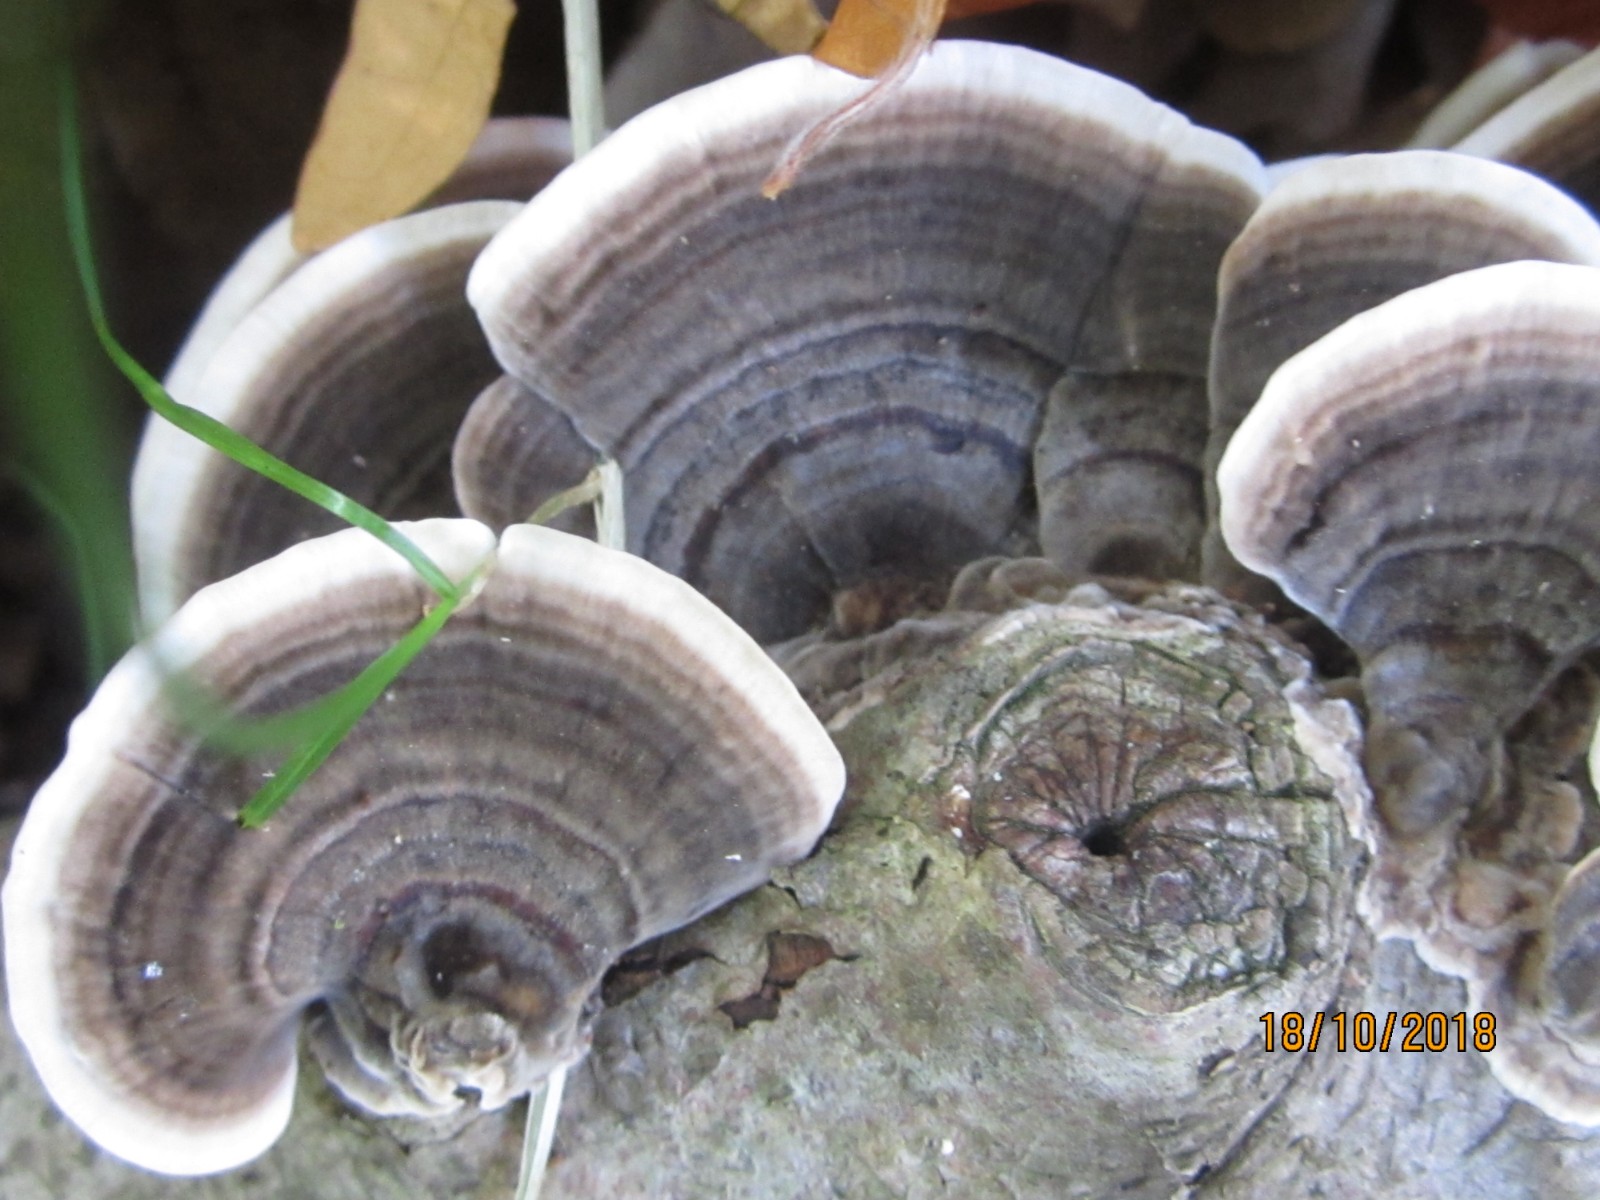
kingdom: Fungi
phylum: Basidiomycota
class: Agaricomycetes
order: Polyporales
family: Polyporaceae
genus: Trametes
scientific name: Trametes versicolor
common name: broget læderporesvamp
